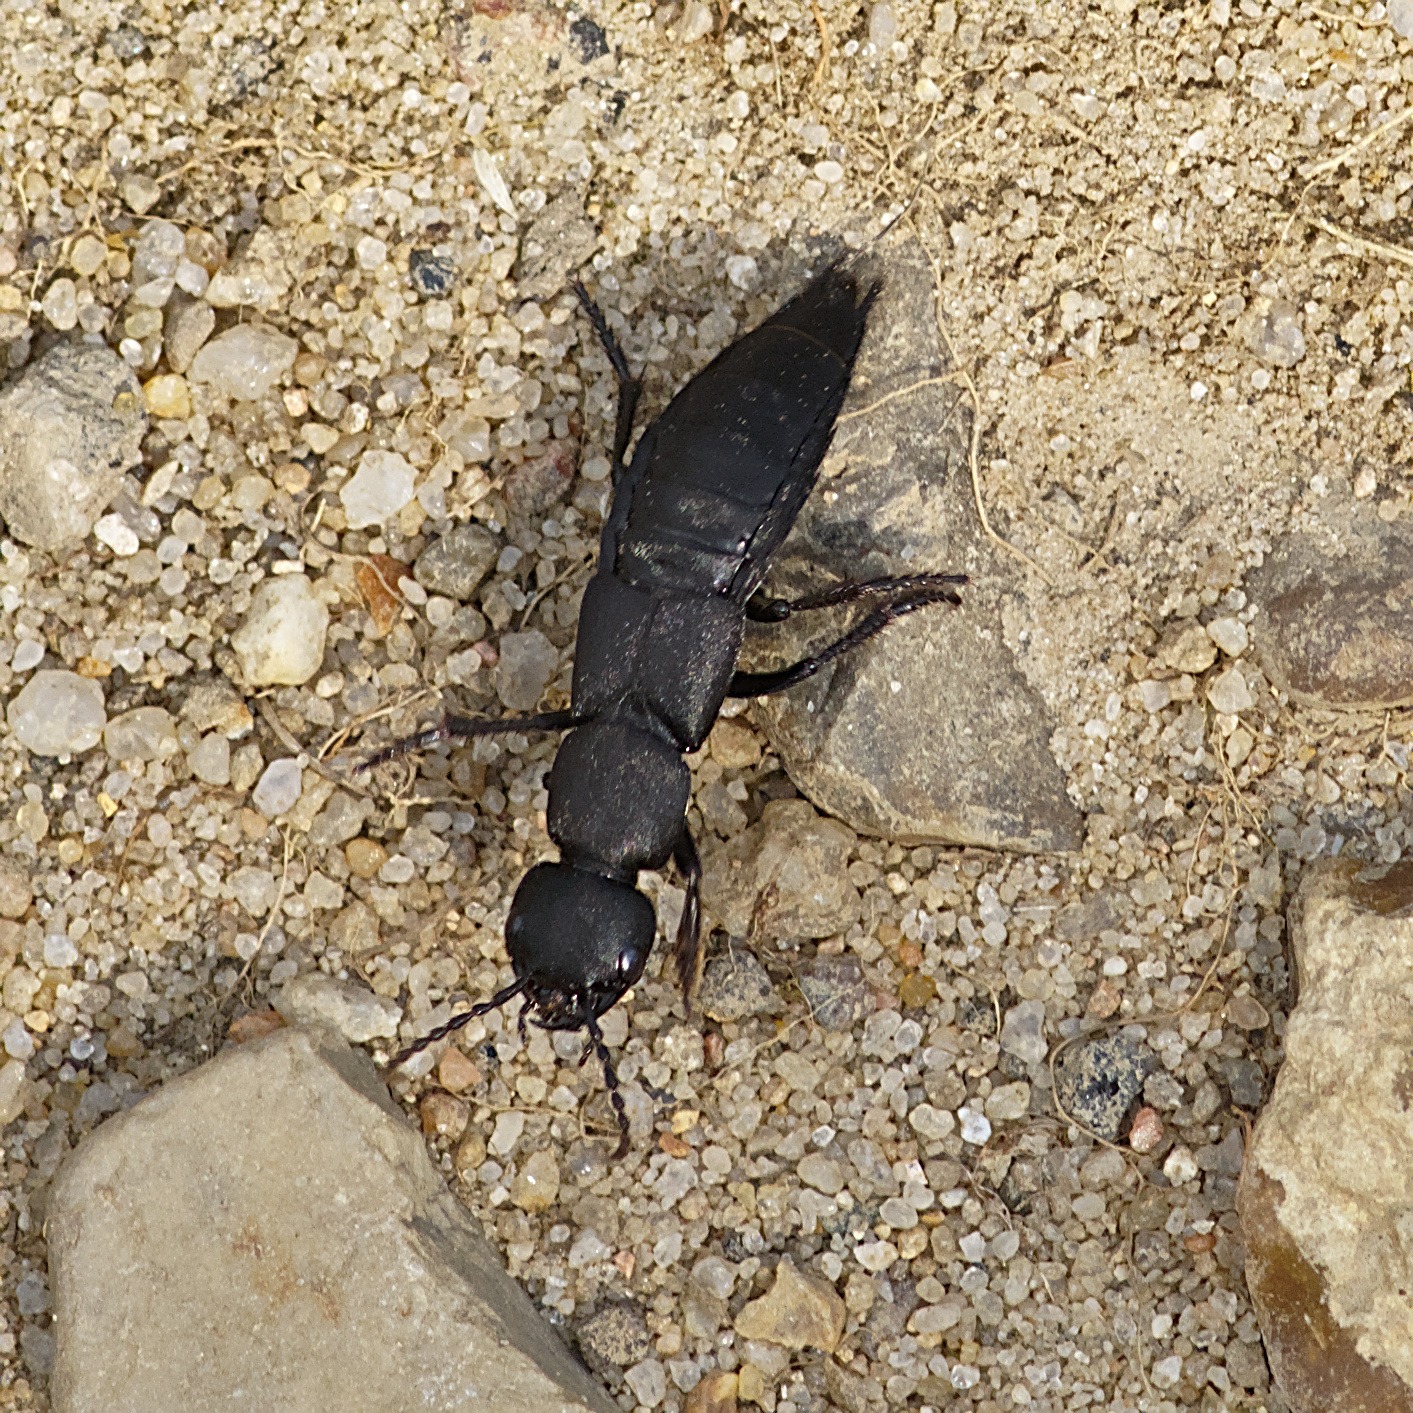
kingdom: Animalia
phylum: Arthropoda
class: Insecta
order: Coleoptera
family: Staphylinidae
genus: Ocypus
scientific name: Ocypus olens
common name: Stor rovbille
